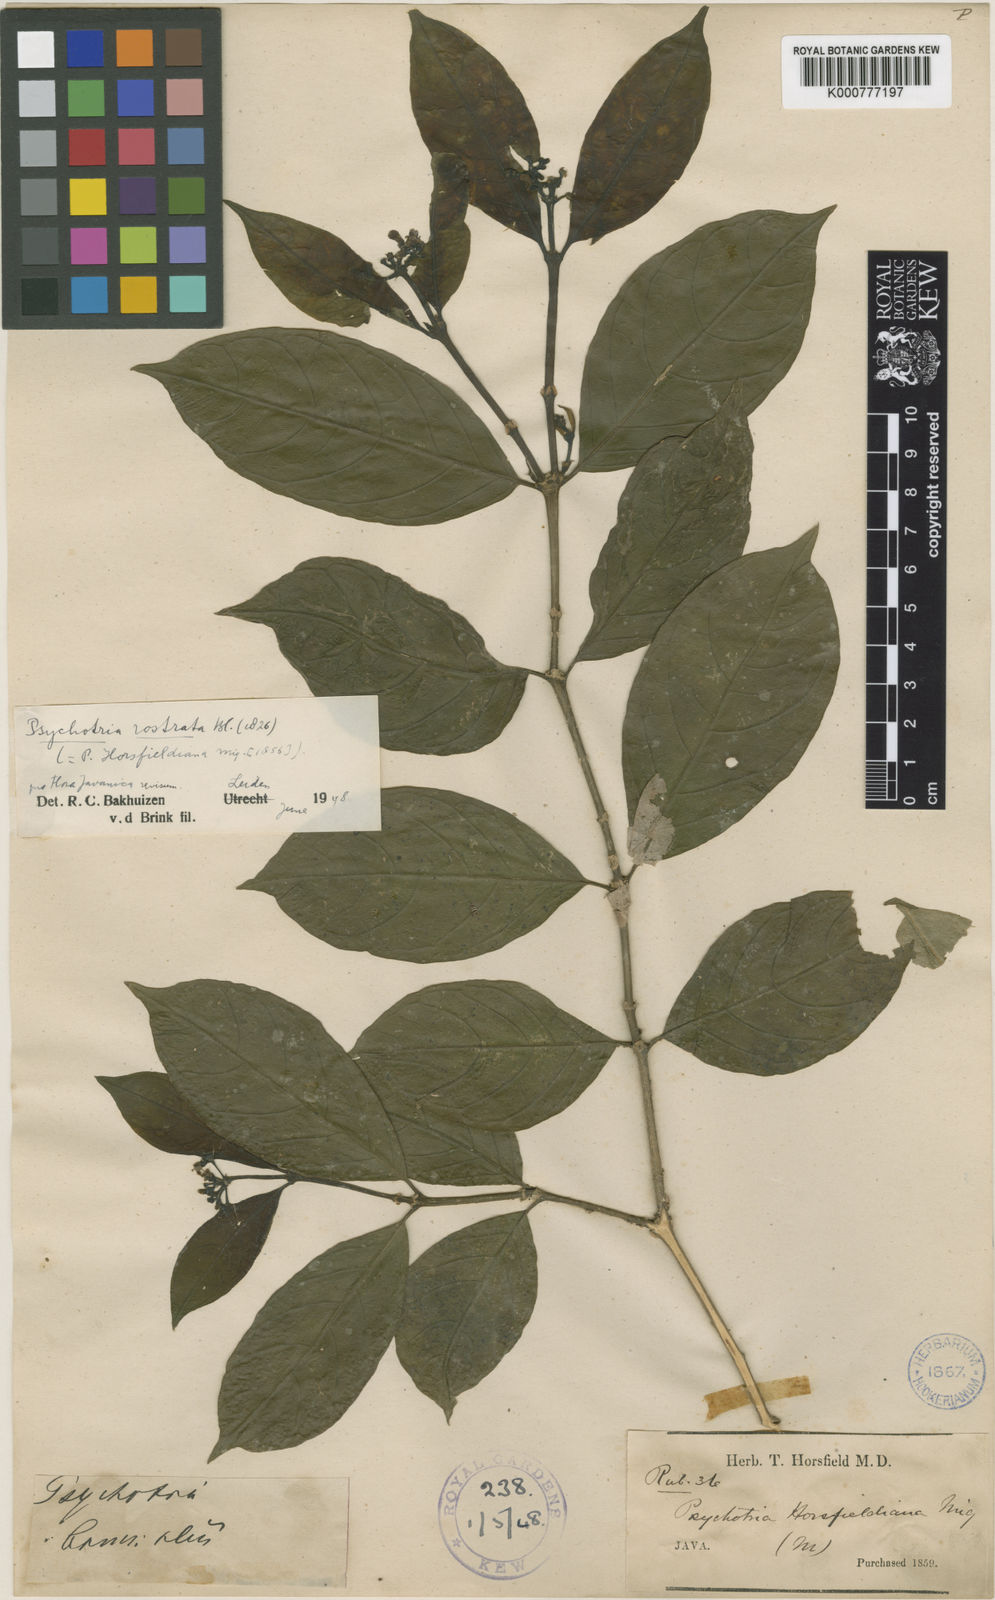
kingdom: Plantae
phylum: Tracheophyta
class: Magnoliopsida
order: Gentianales
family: Rubiaceae
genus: Eumachia
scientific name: Eumachia horsfieldiana
